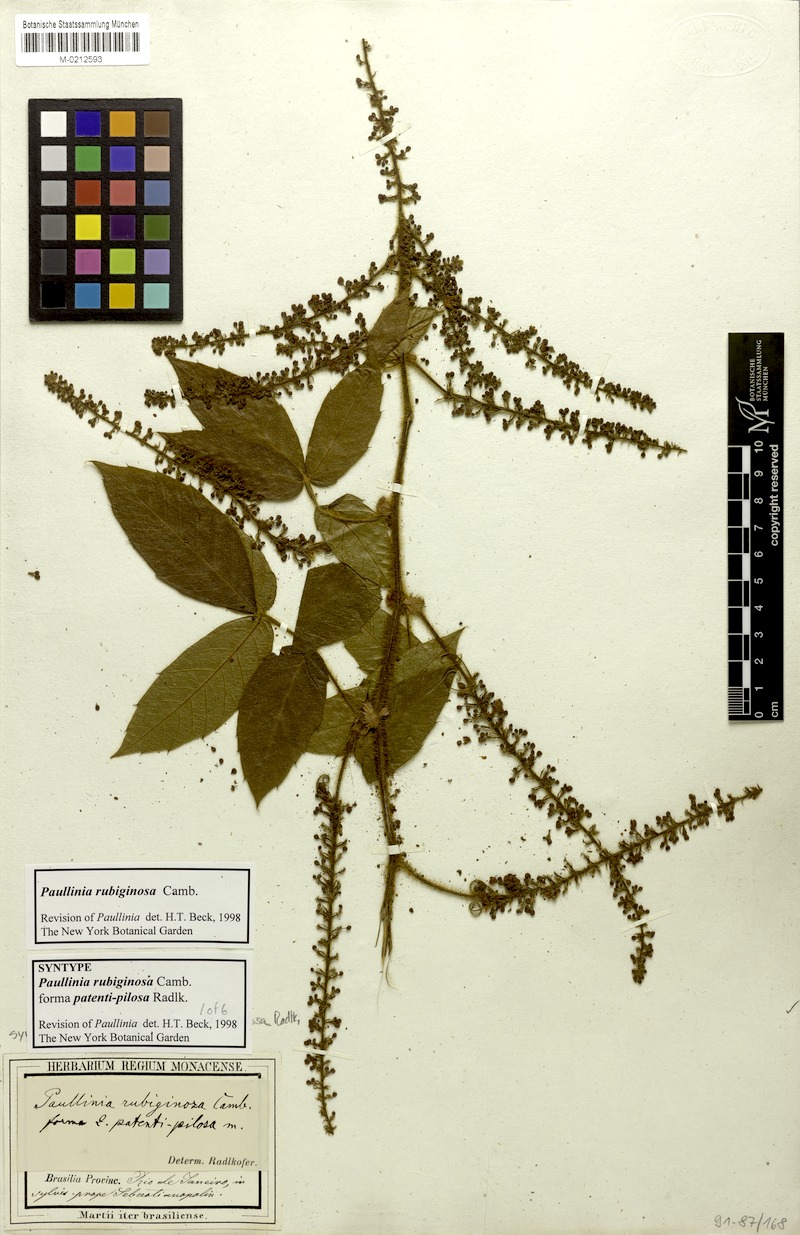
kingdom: Plantae
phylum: Tracheophyta
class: Magnoliopsida
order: Sapindales
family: Sapindaceae
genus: Paullinia
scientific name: Paullinia rubiginosa
